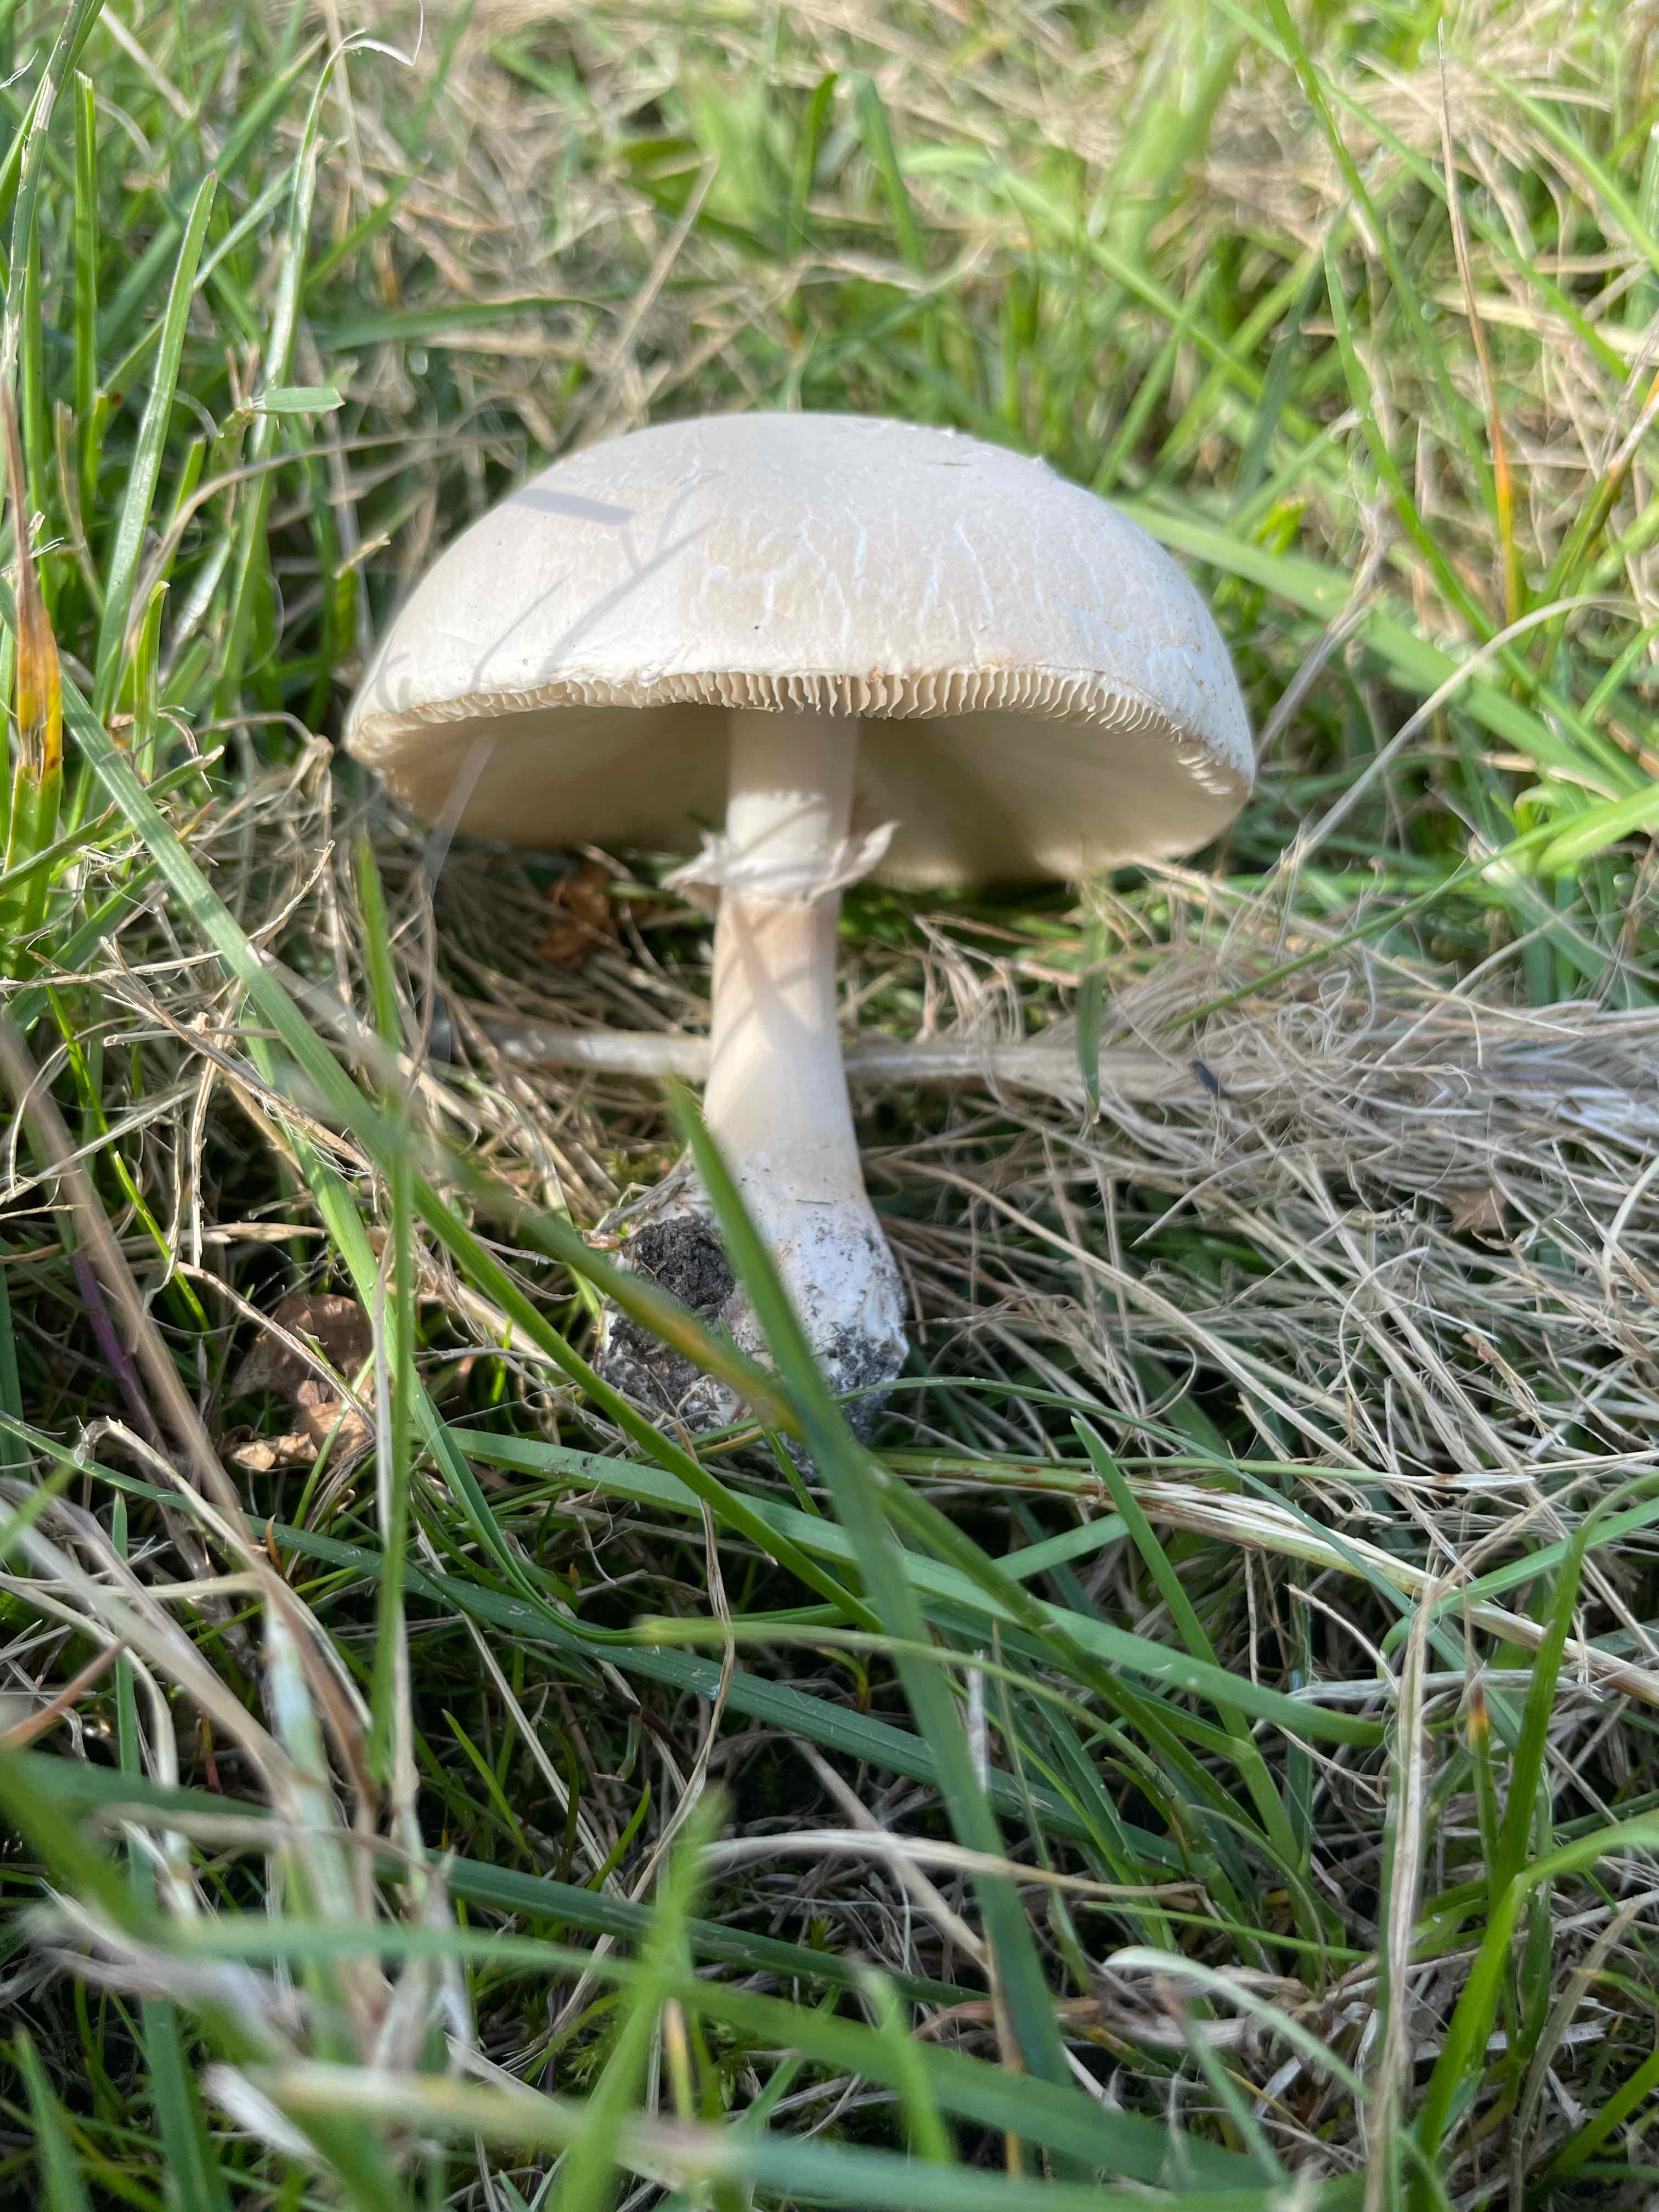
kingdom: Fungi
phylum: Basidiomycota
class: Agaricomycetes
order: Agaricales
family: Agaricaceae
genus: Leucoagaricus
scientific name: Leucoagaricus leucothites
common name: rosabladet silkehat
